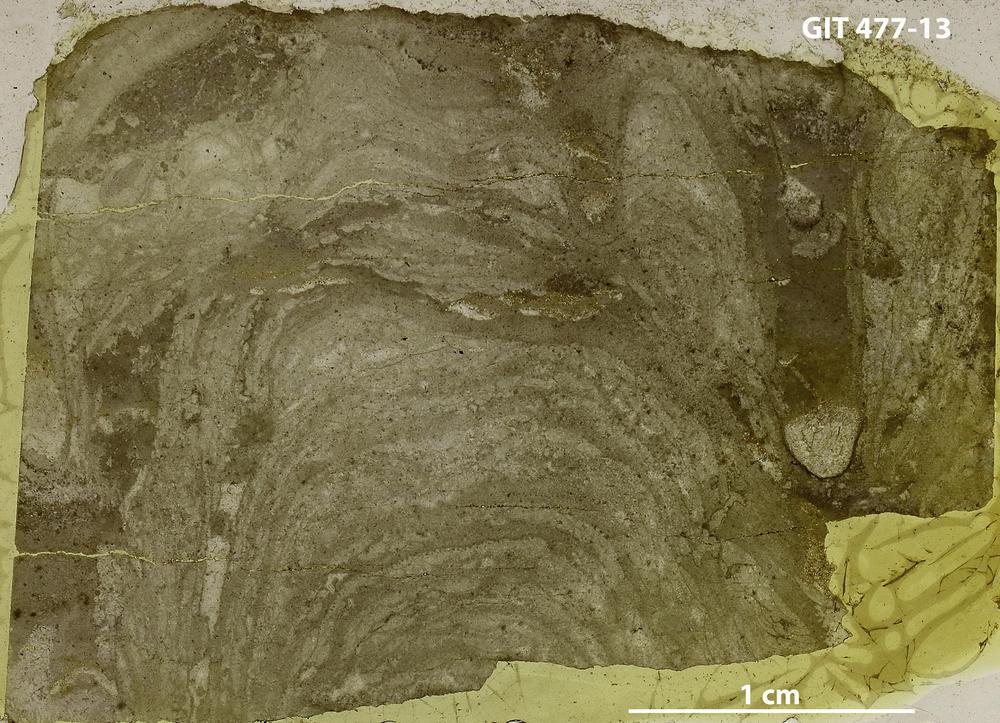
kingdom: Animalia
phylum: Porifera
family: Stylostromatidae
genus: Pachystylostroma
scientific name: Pachystylostroma
